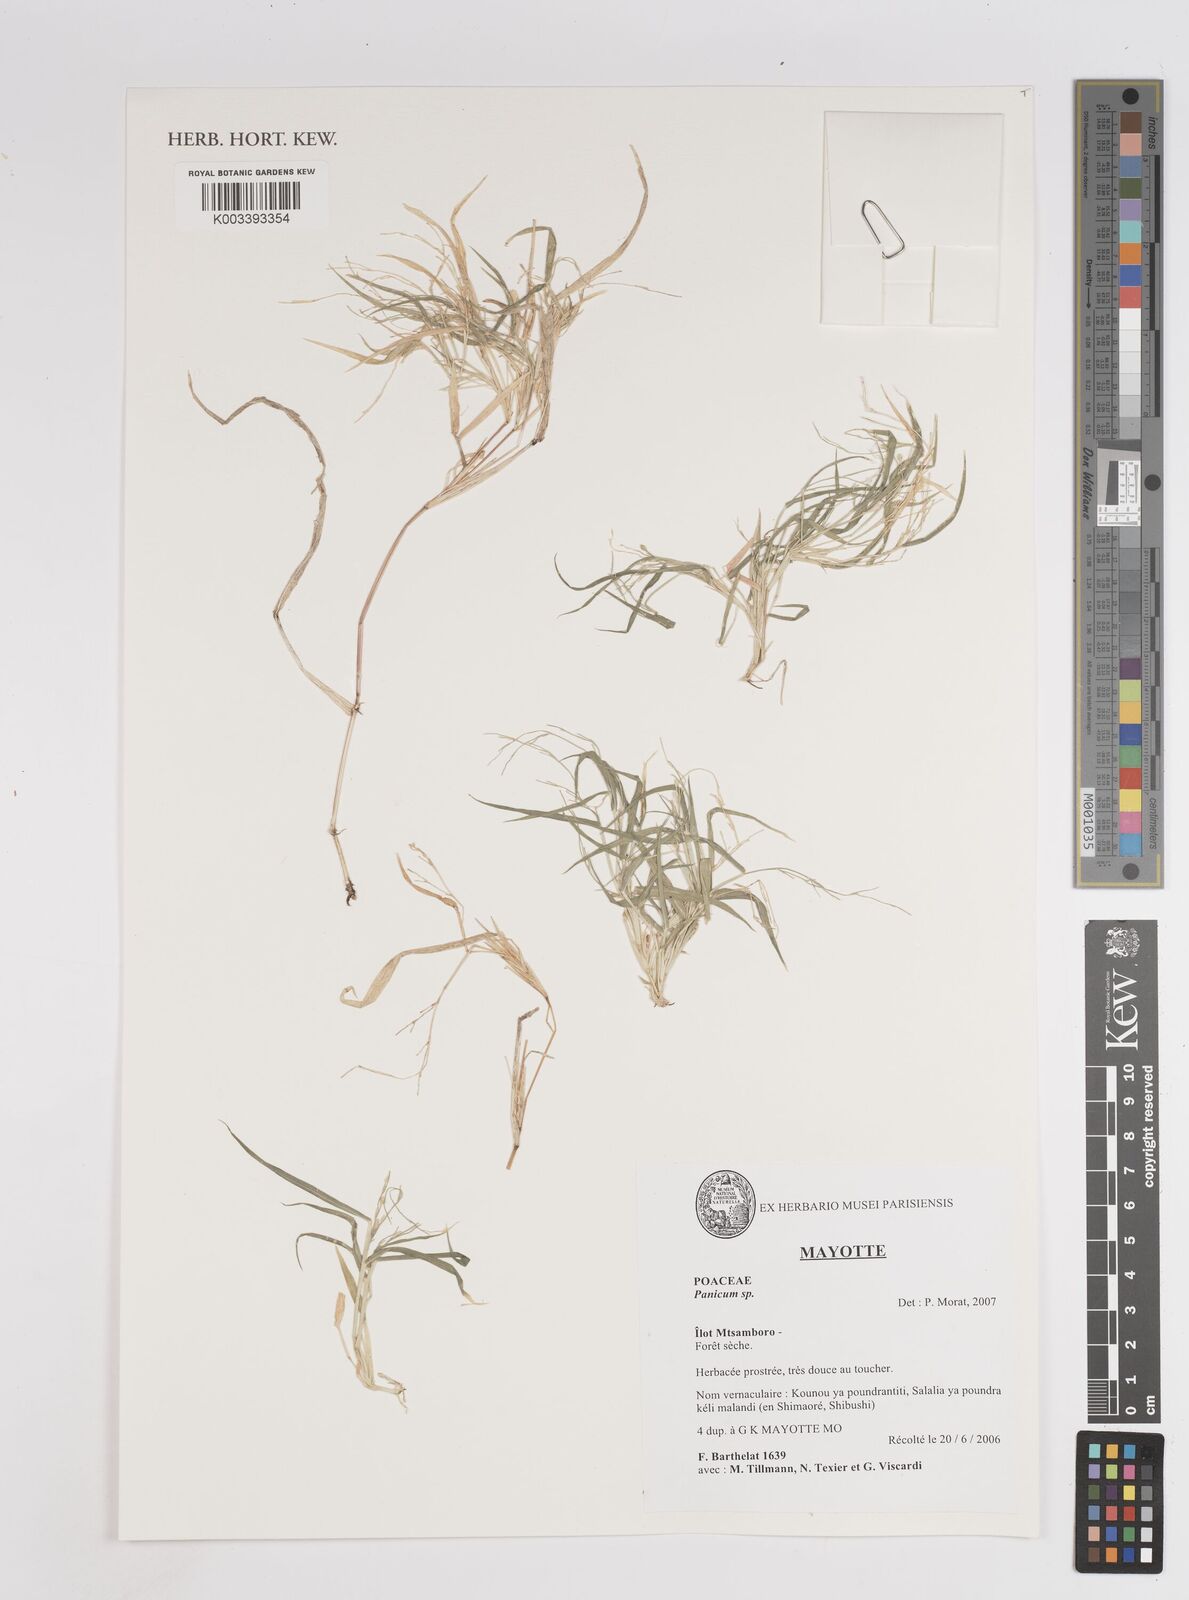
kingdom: Plantae
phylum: Tracheophyta
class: Liliopsida
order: Poales
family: Poaceae
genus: Panicum
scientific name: Panicum
